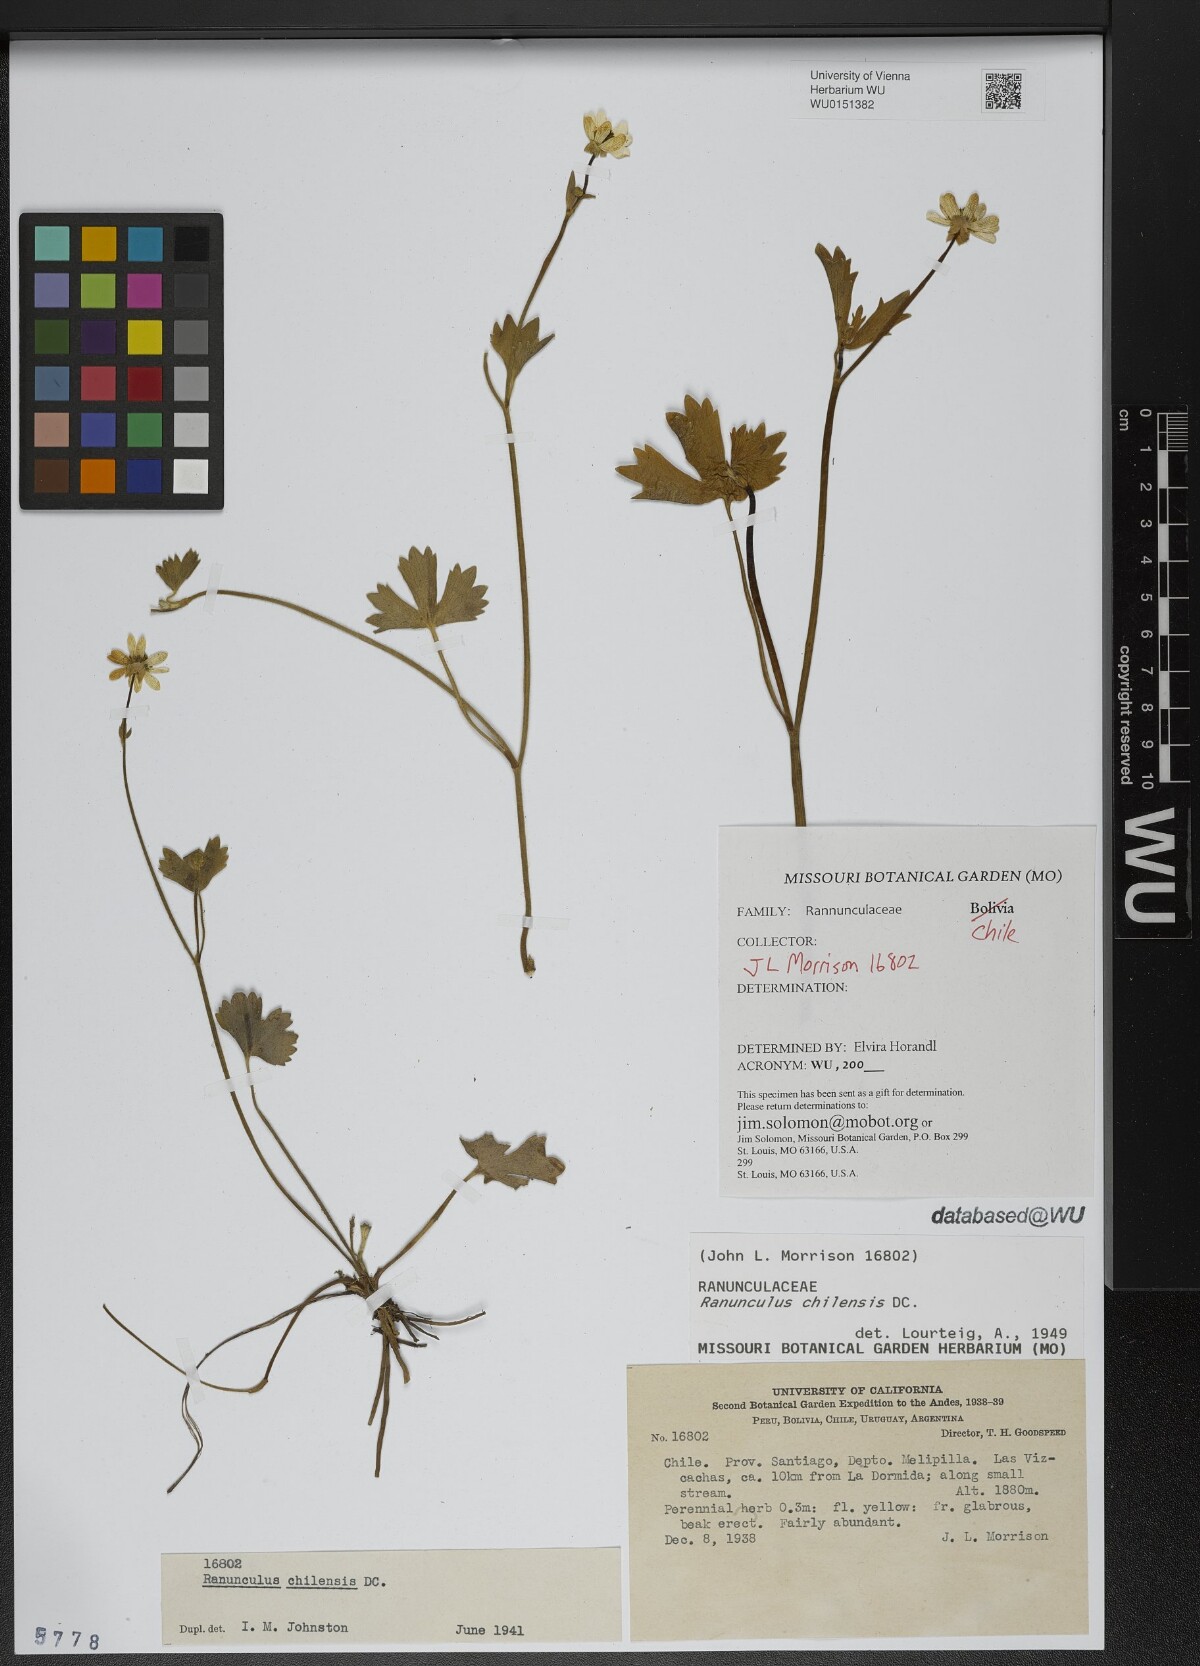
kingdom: Plantae
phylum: Tracheophyta
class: Magnoliopsida
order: Ranunculales
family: Ranunculaceae
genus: Ranunculus
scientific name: Ranunculus chilensis
